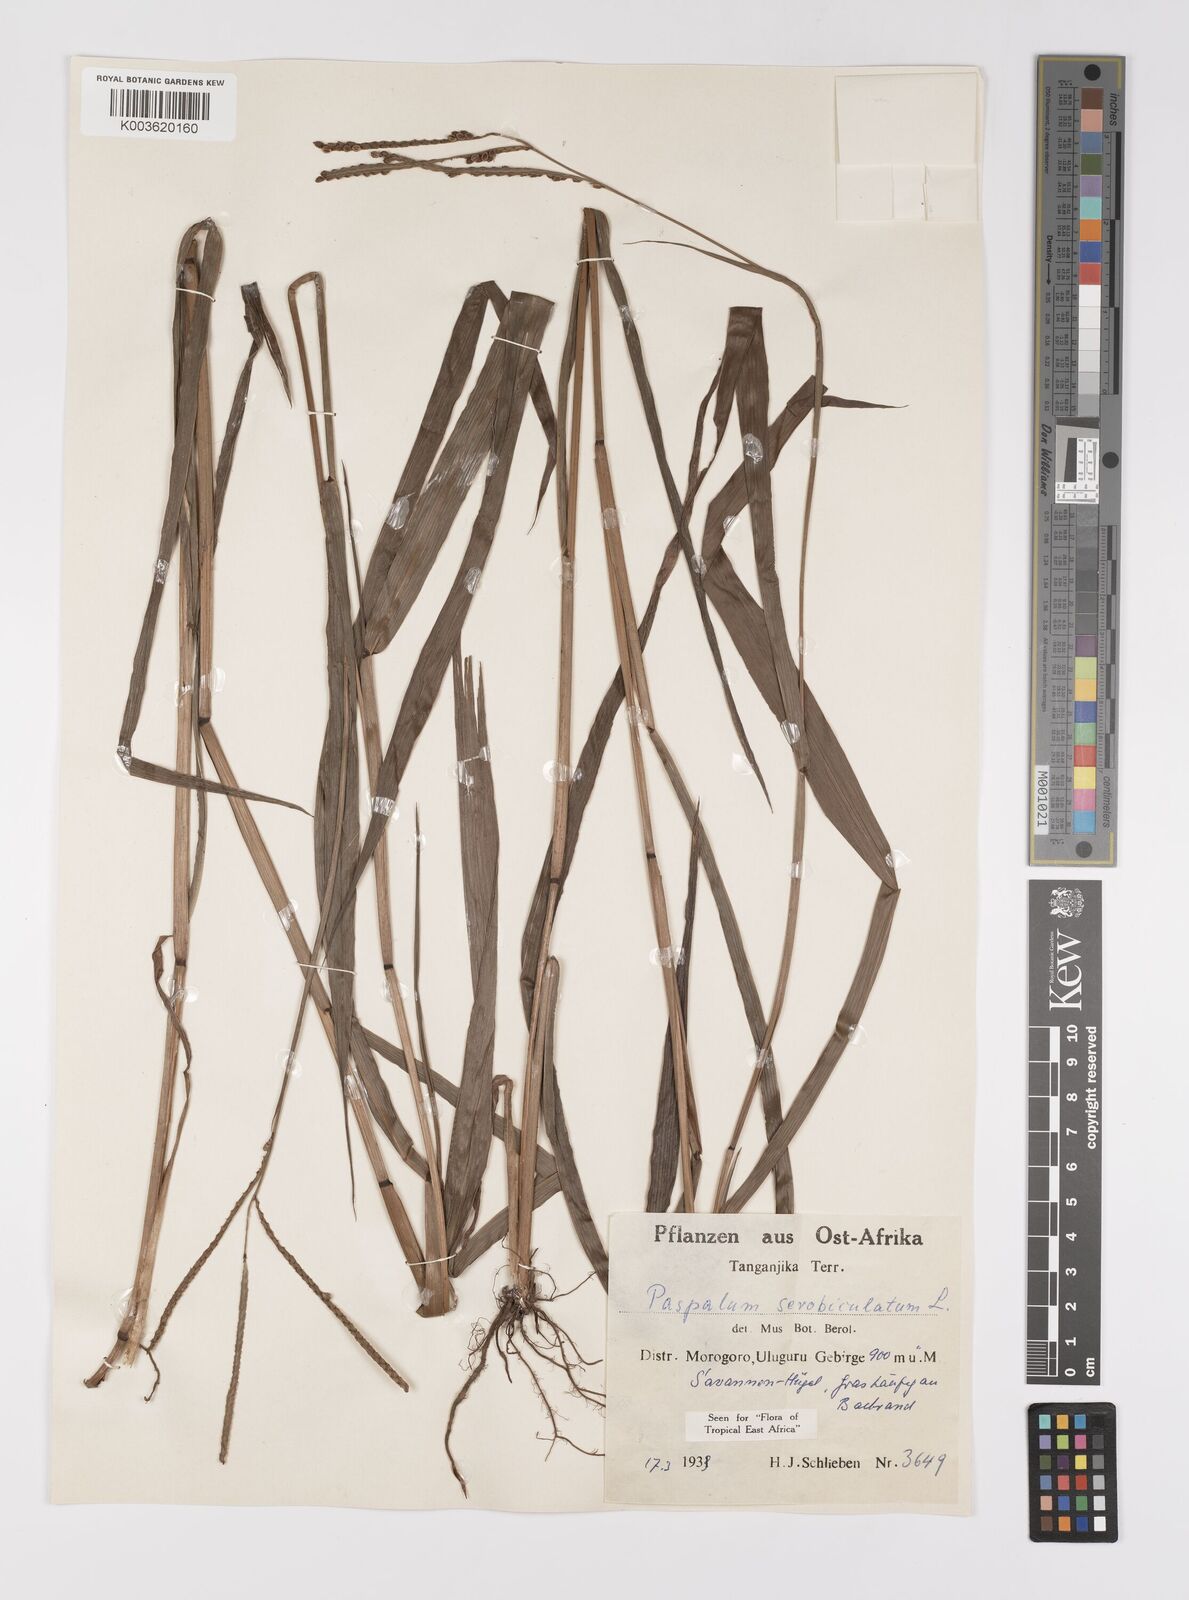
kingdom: Plantae
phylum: Tracheophyta
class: Liliopsida
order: Poales
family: Poaceae
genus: Paspalum
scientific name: Paspalum scrobiculatum
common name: Kodo millet
